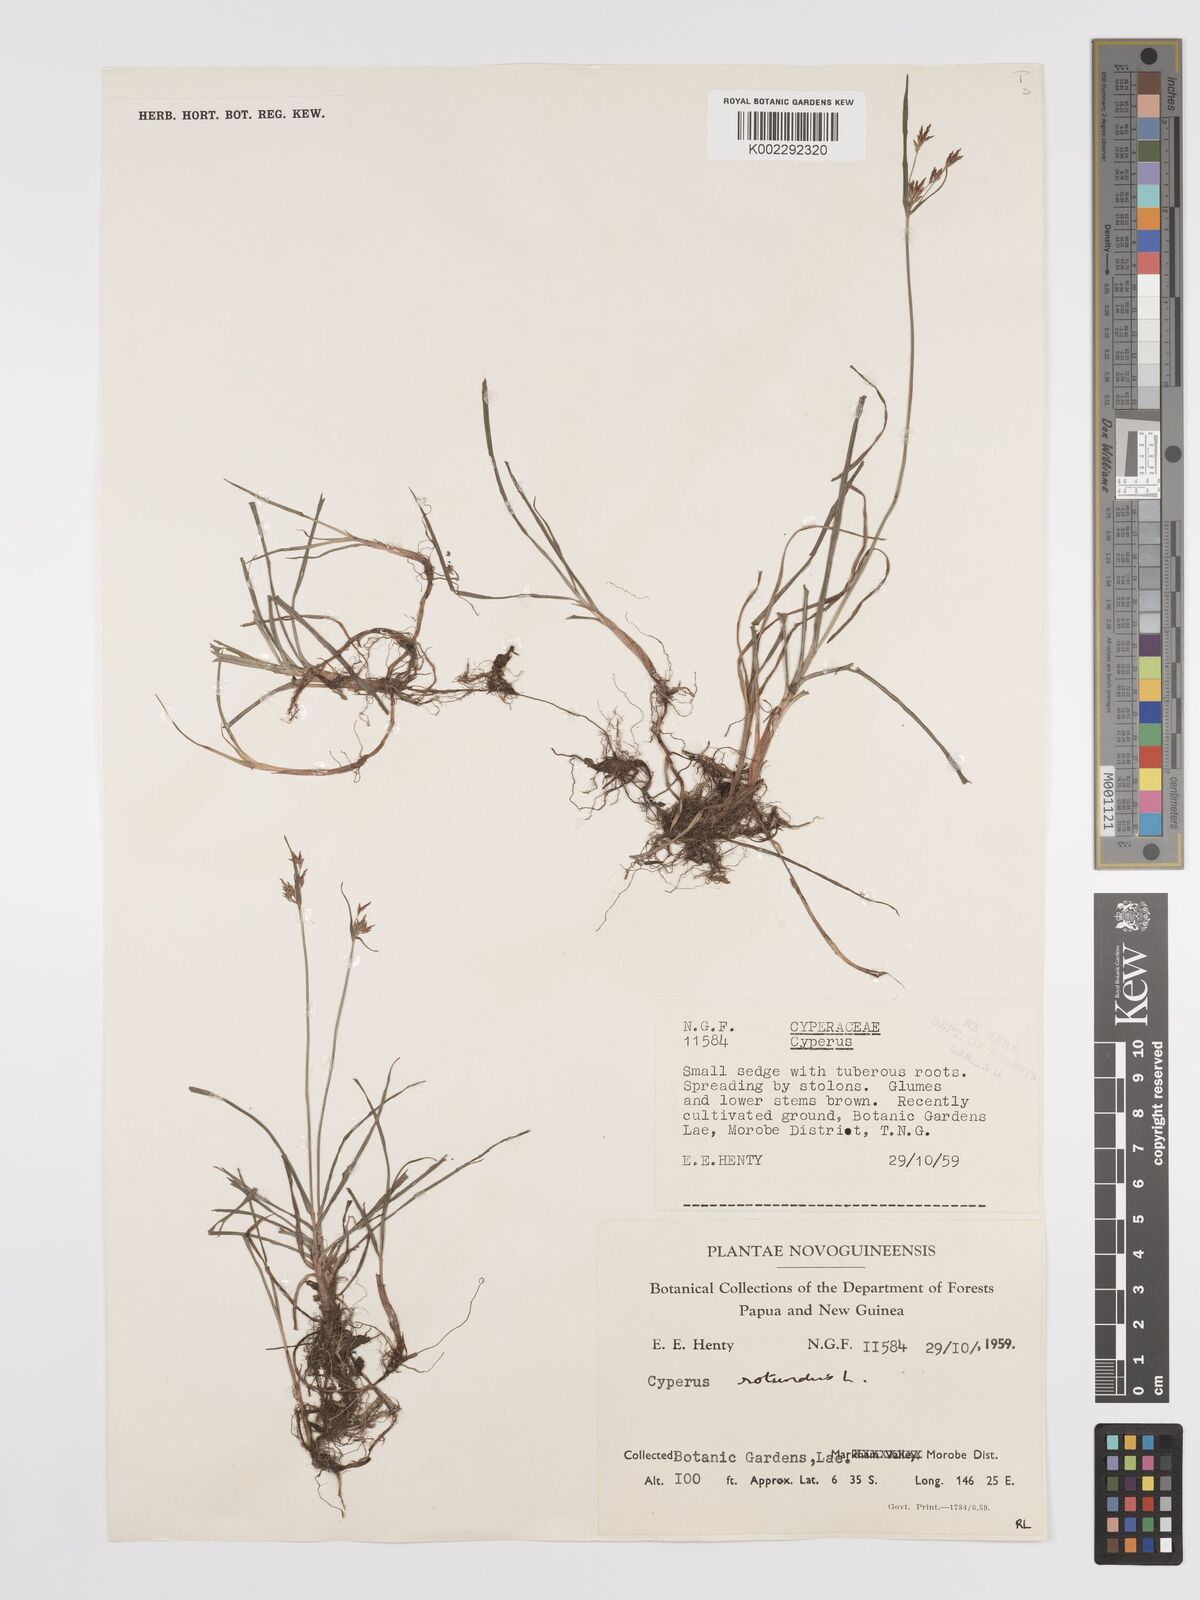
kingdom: Plantae
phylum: Tracheophyta
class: Liliopsida
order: Poales
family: Cyperaceae
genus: Cyperus
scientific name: Cyperus rotundus
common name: Nutgrass
